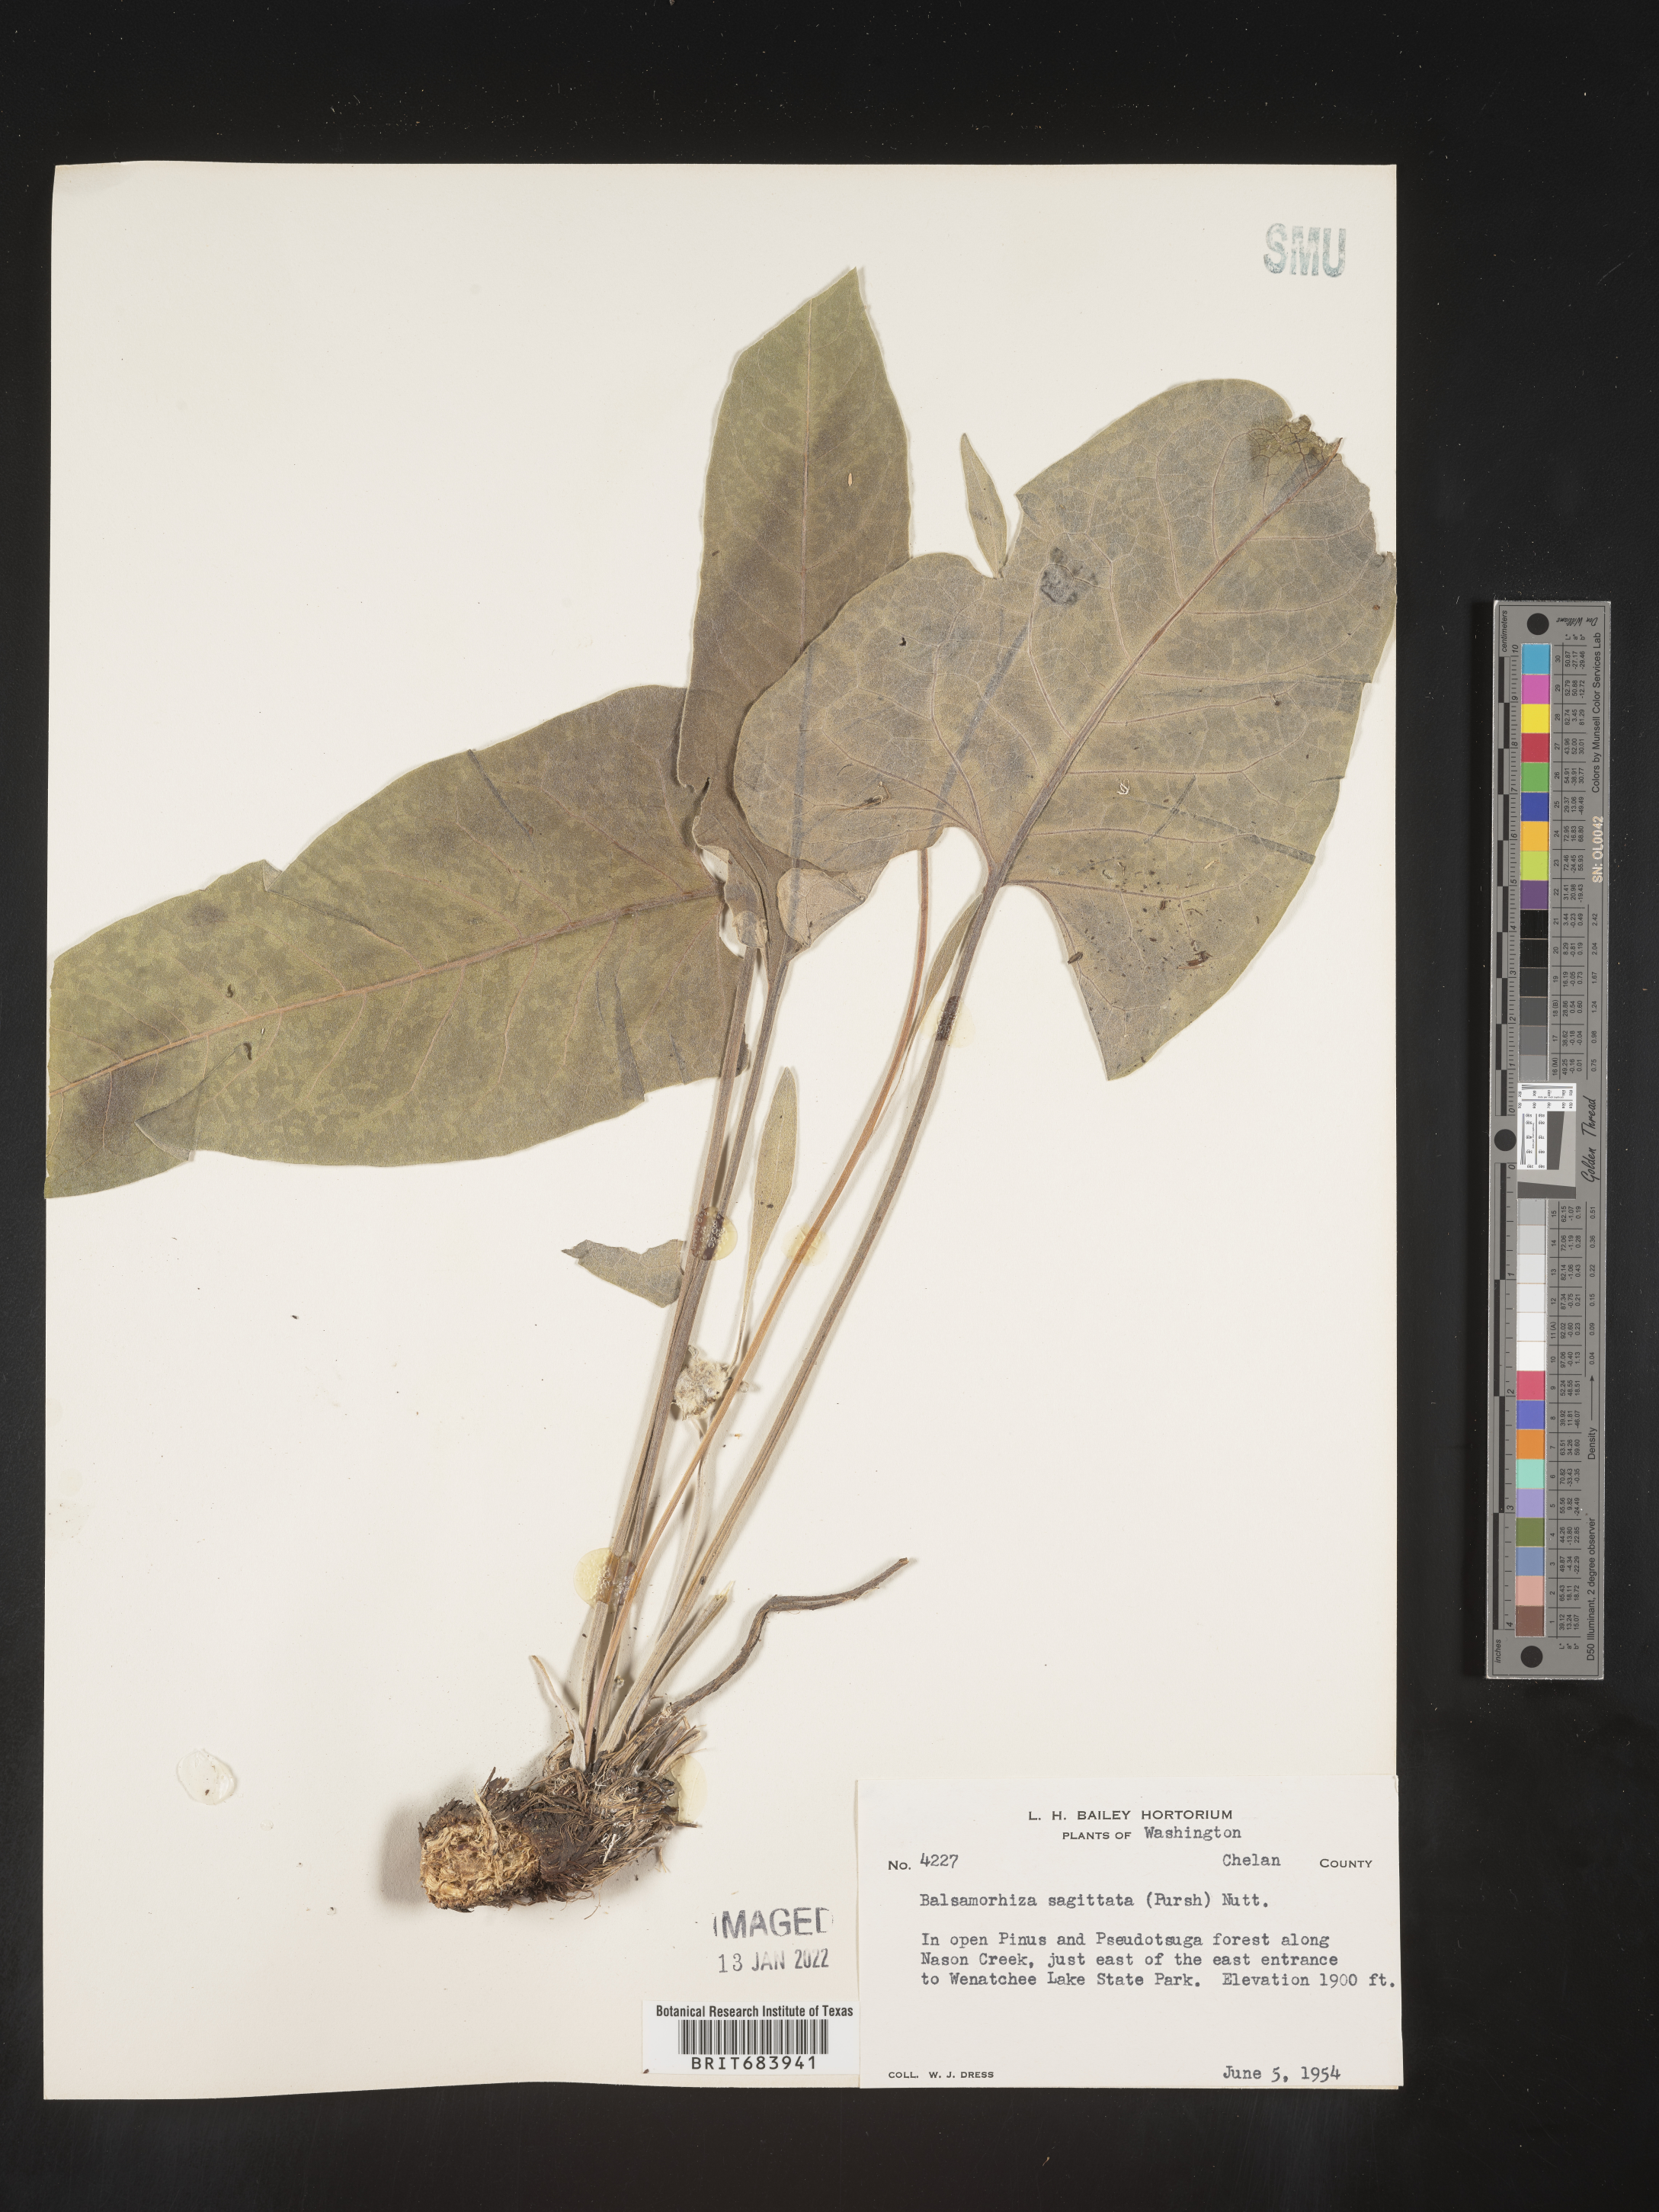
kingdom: Plantae
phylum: Tracheophyta
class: Magnoliopsida
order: Asterales
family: Asteraceae
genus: Wyethia
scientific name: Wyethia sagittata
